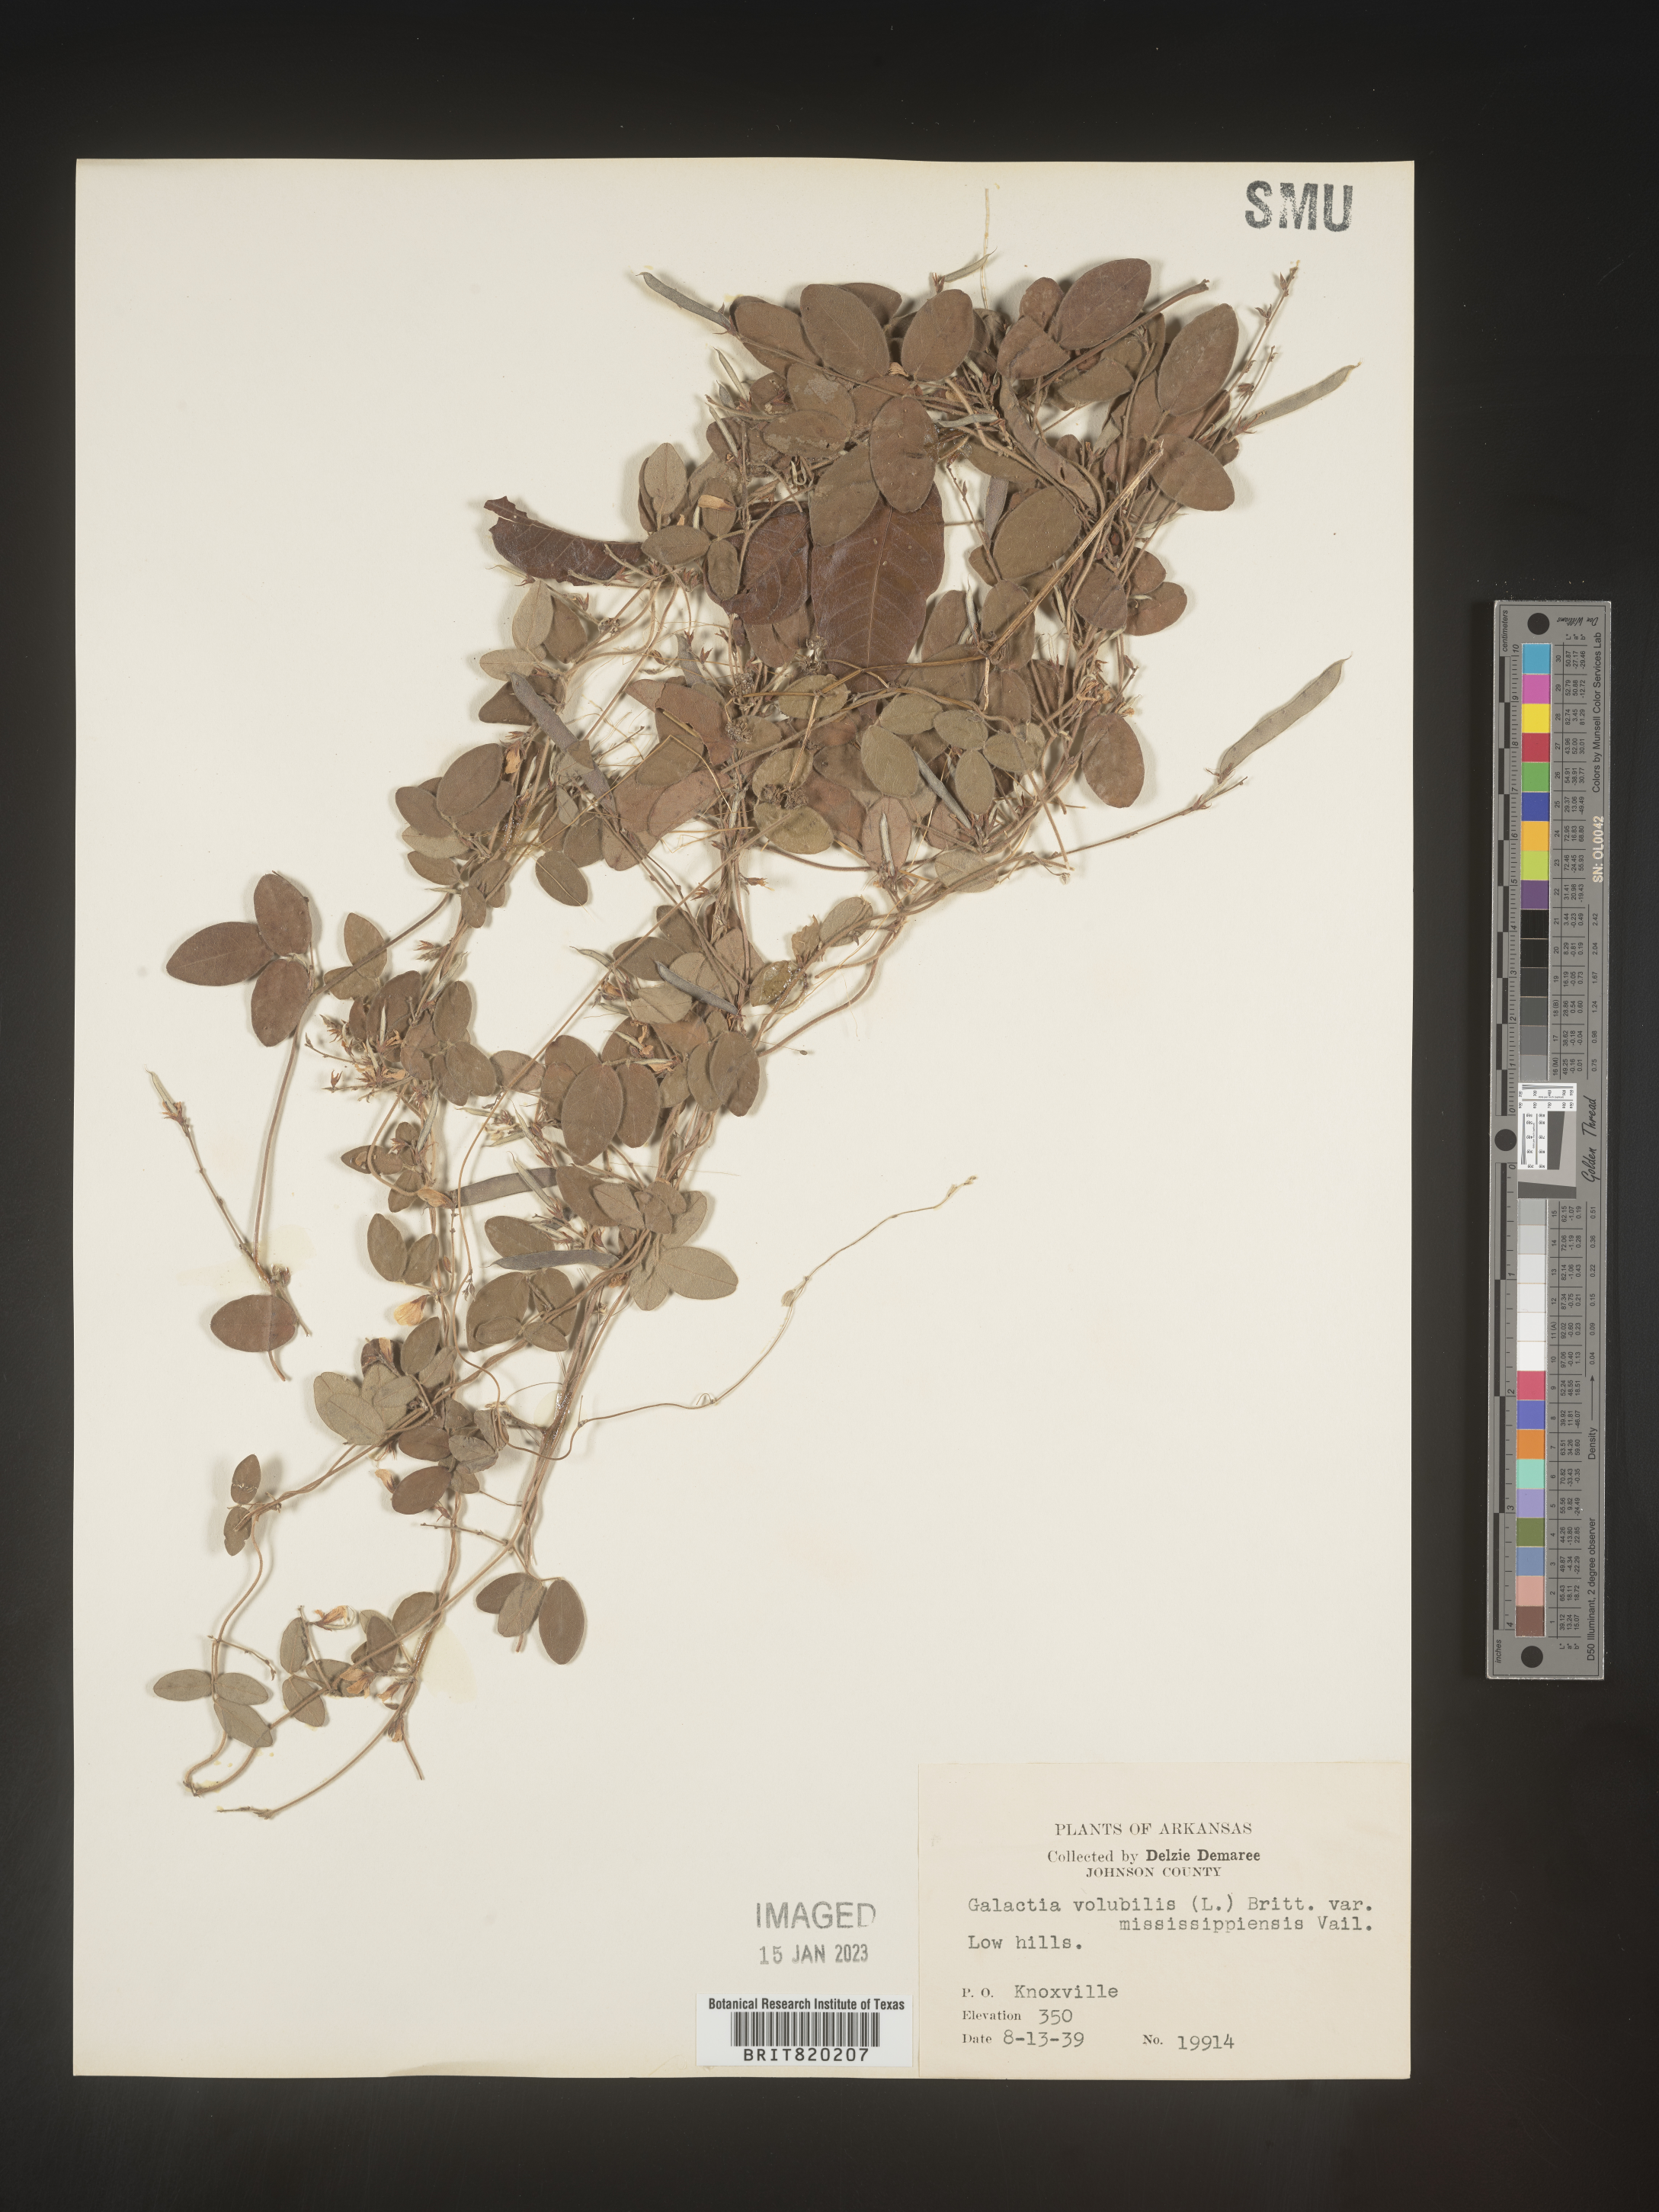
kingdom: Plantae
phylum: Tracheophyta
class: Magnoliopsida
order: Fabales
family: Fabaceae
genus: Galactia
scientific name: Galactia volubilis
